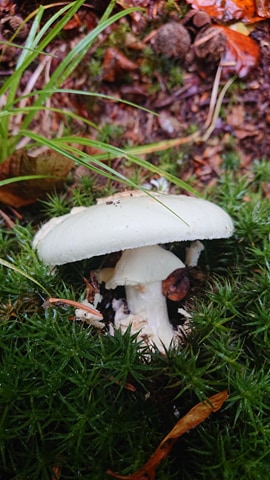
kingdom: Fungi
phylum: Basidiomycota
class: Agaricomycetes
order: Agaricales
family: Amanitaceae
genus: Amanita
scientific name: Amanita citrina
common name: kugleknoldet fluesvamp
